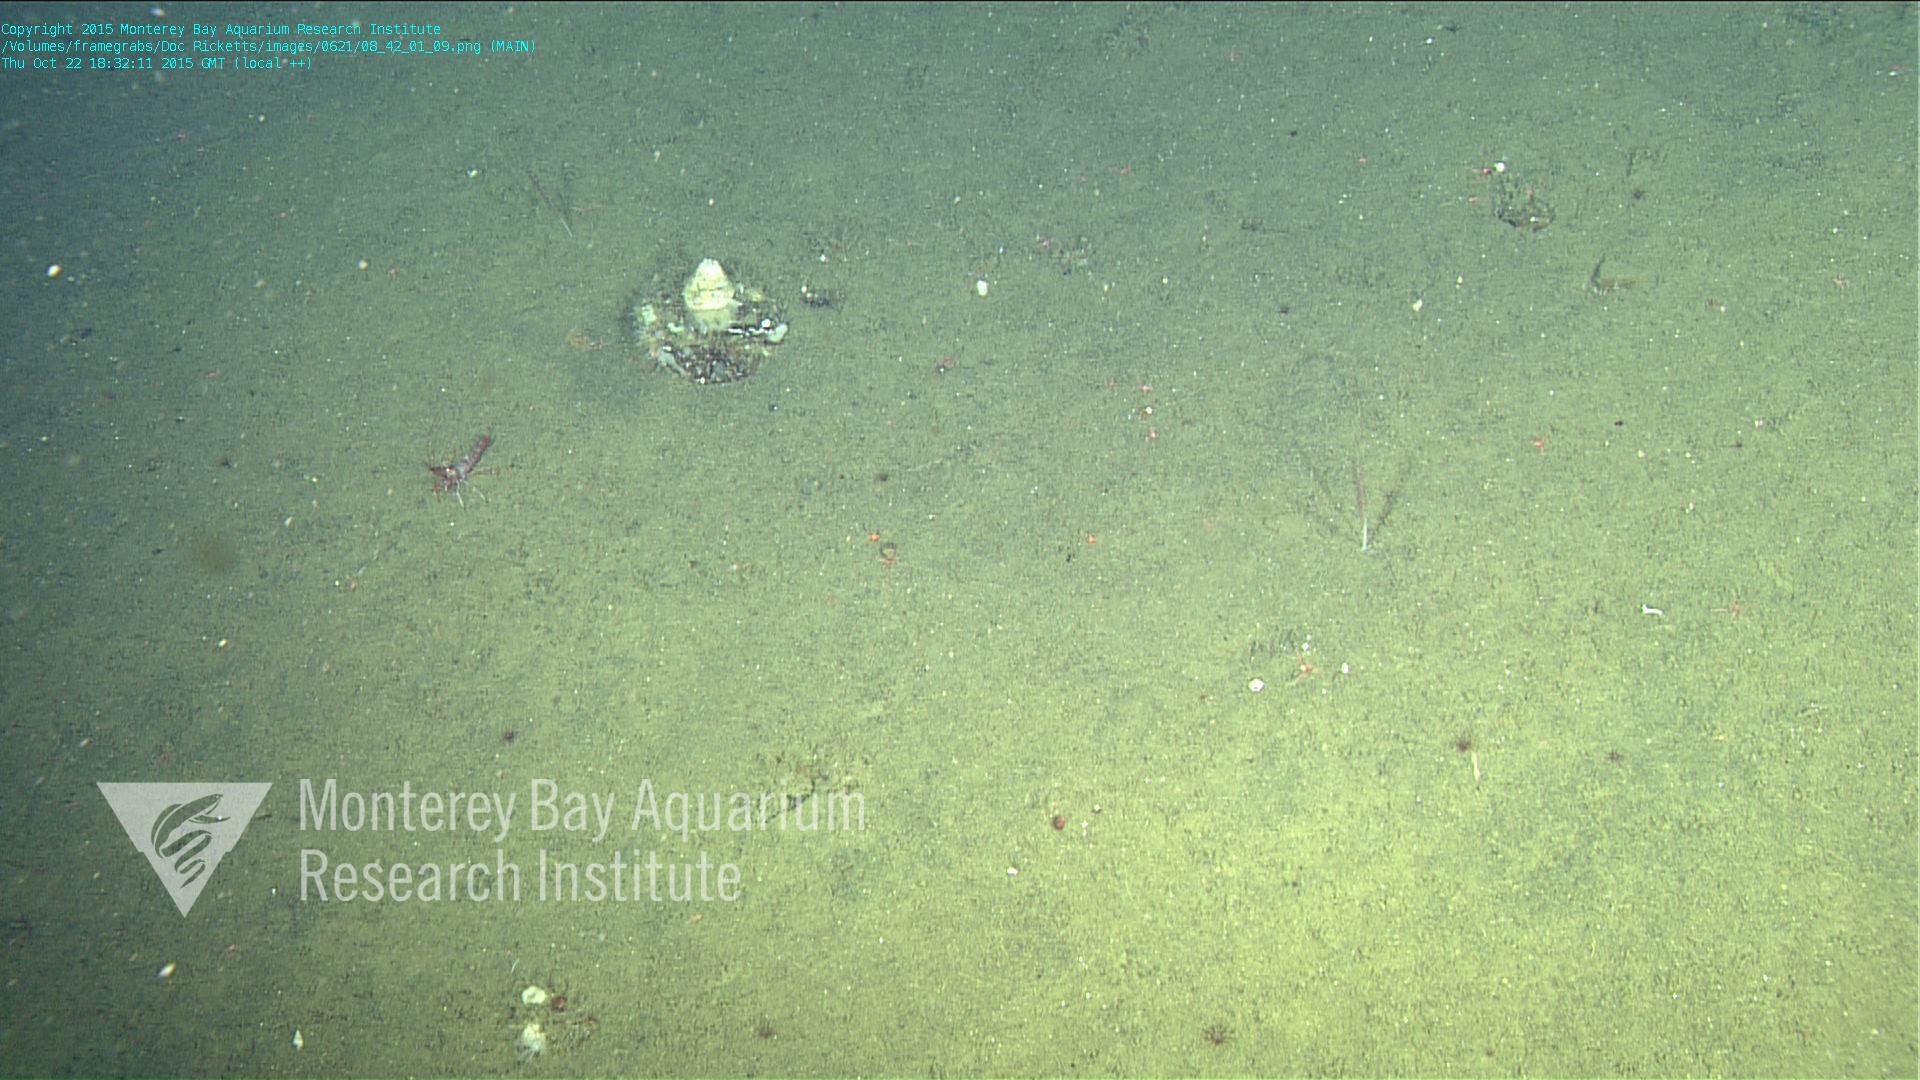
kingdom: Animalia
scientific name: Animalia
